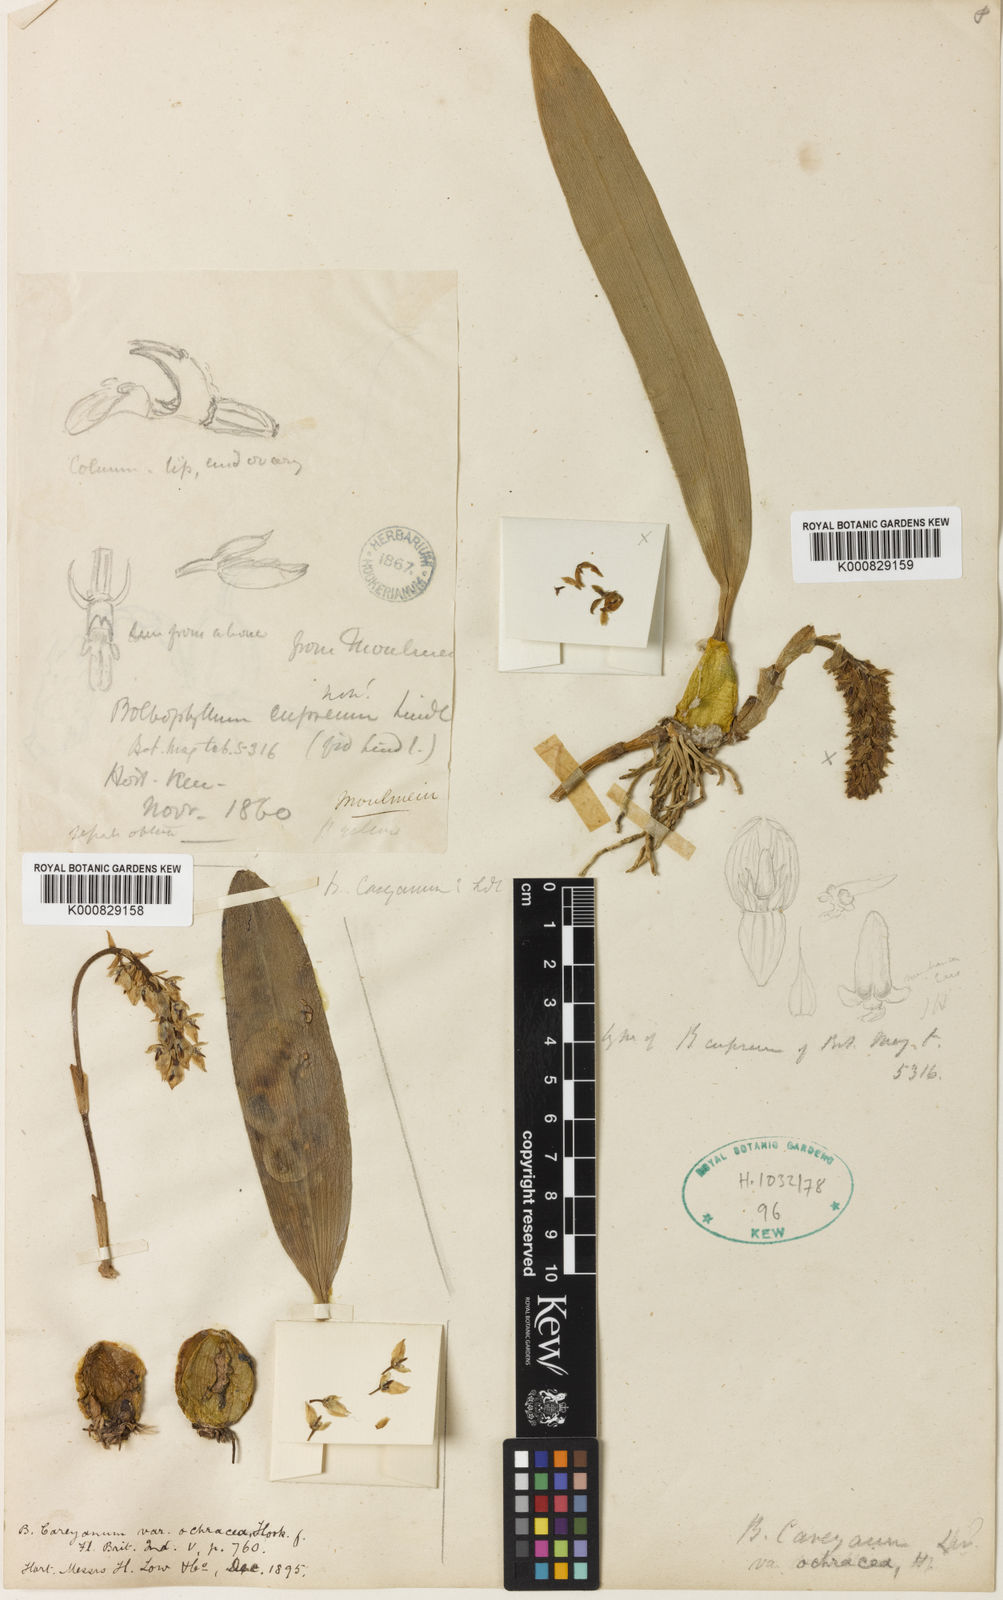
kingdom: Plantae
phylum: Tracheophyta
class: Liliopsida
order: Asparagales
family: Orchidaceae
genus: Bulbophyllum
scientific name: Bulbophyllum careyanum
